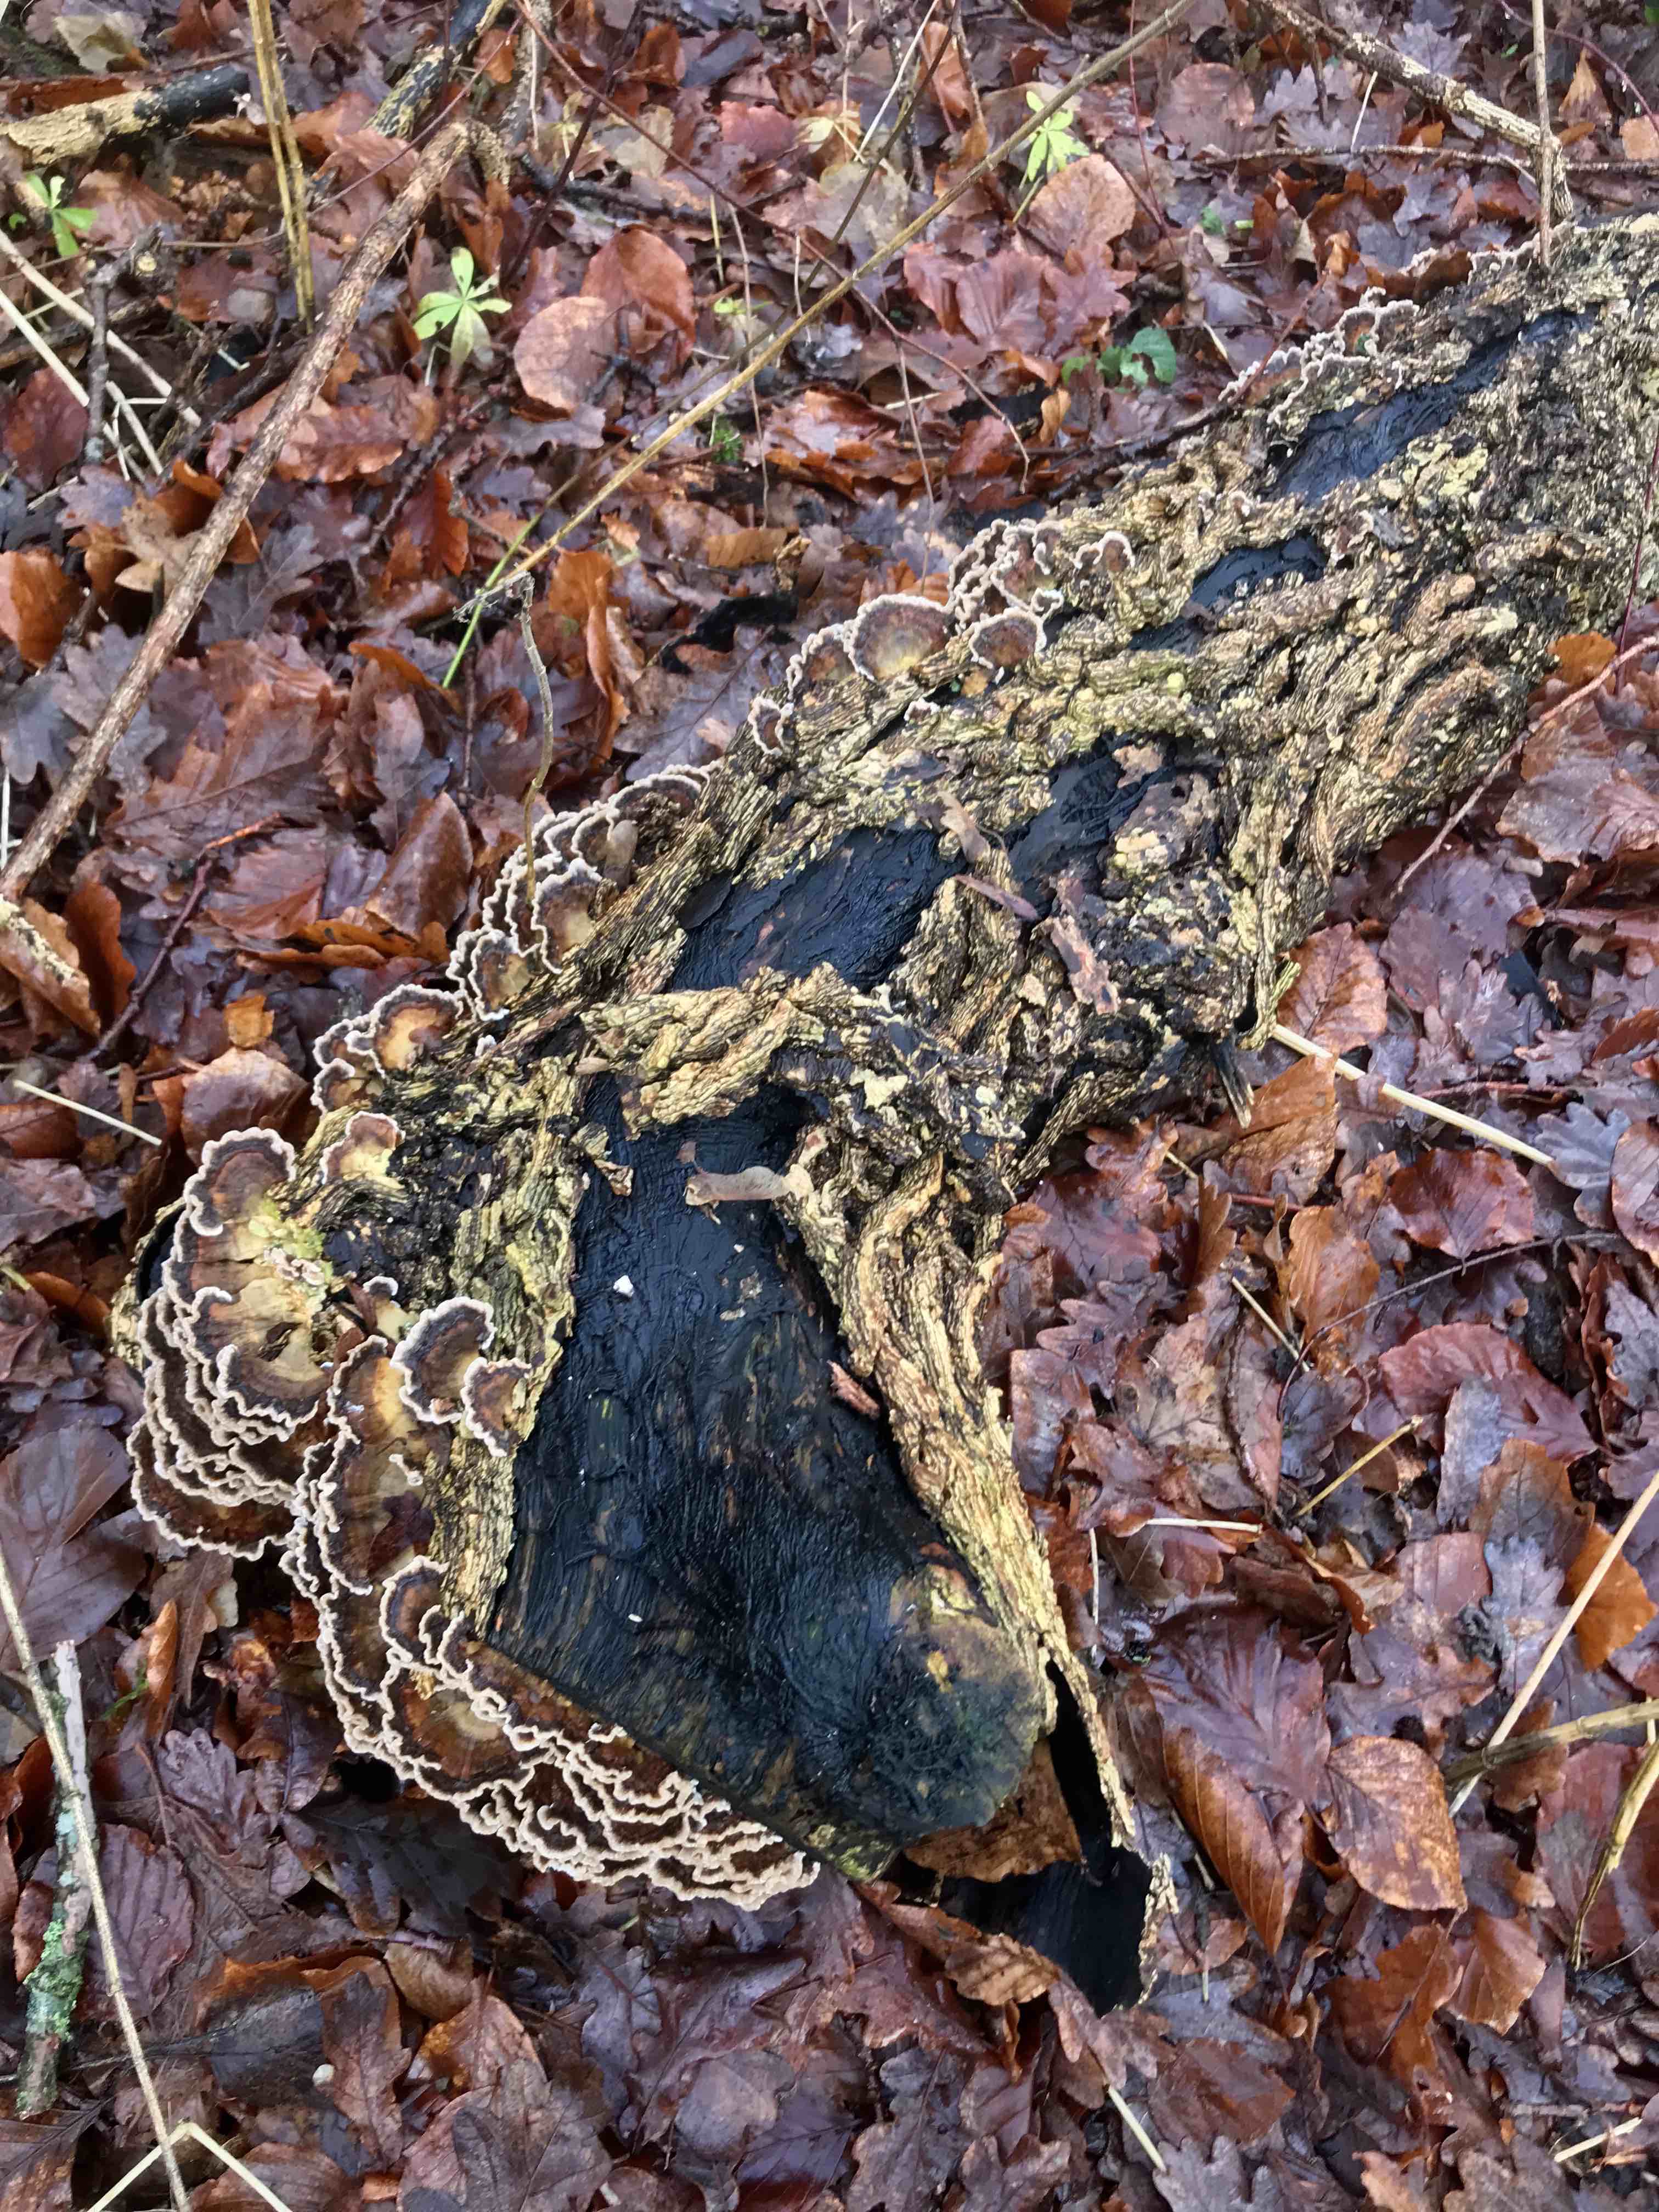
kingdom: Fungi
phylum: Basidiomycota
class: Agaricomycetes
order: Polyporales
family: Polyporaceae
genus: Trametes
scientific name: Trametes versicolor
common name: broget læderporesvamp
